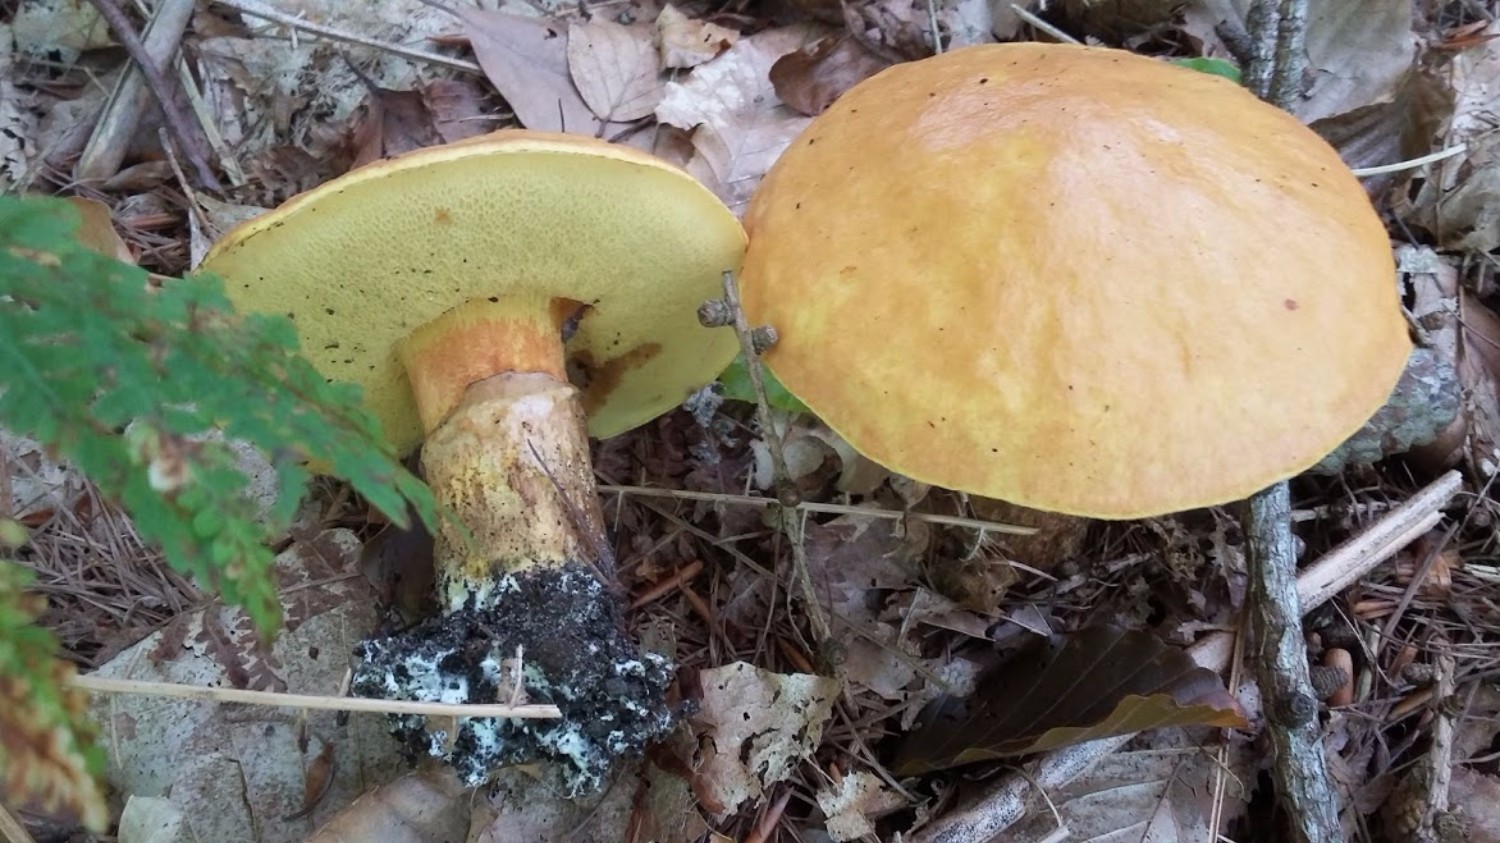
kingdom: Fungi
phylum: Basidiomycota
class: Agaricomycetes
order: Boletales
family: Suillaceae
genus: Suillus
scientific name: Suillus grevillei
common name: lærke-slimrørhat
